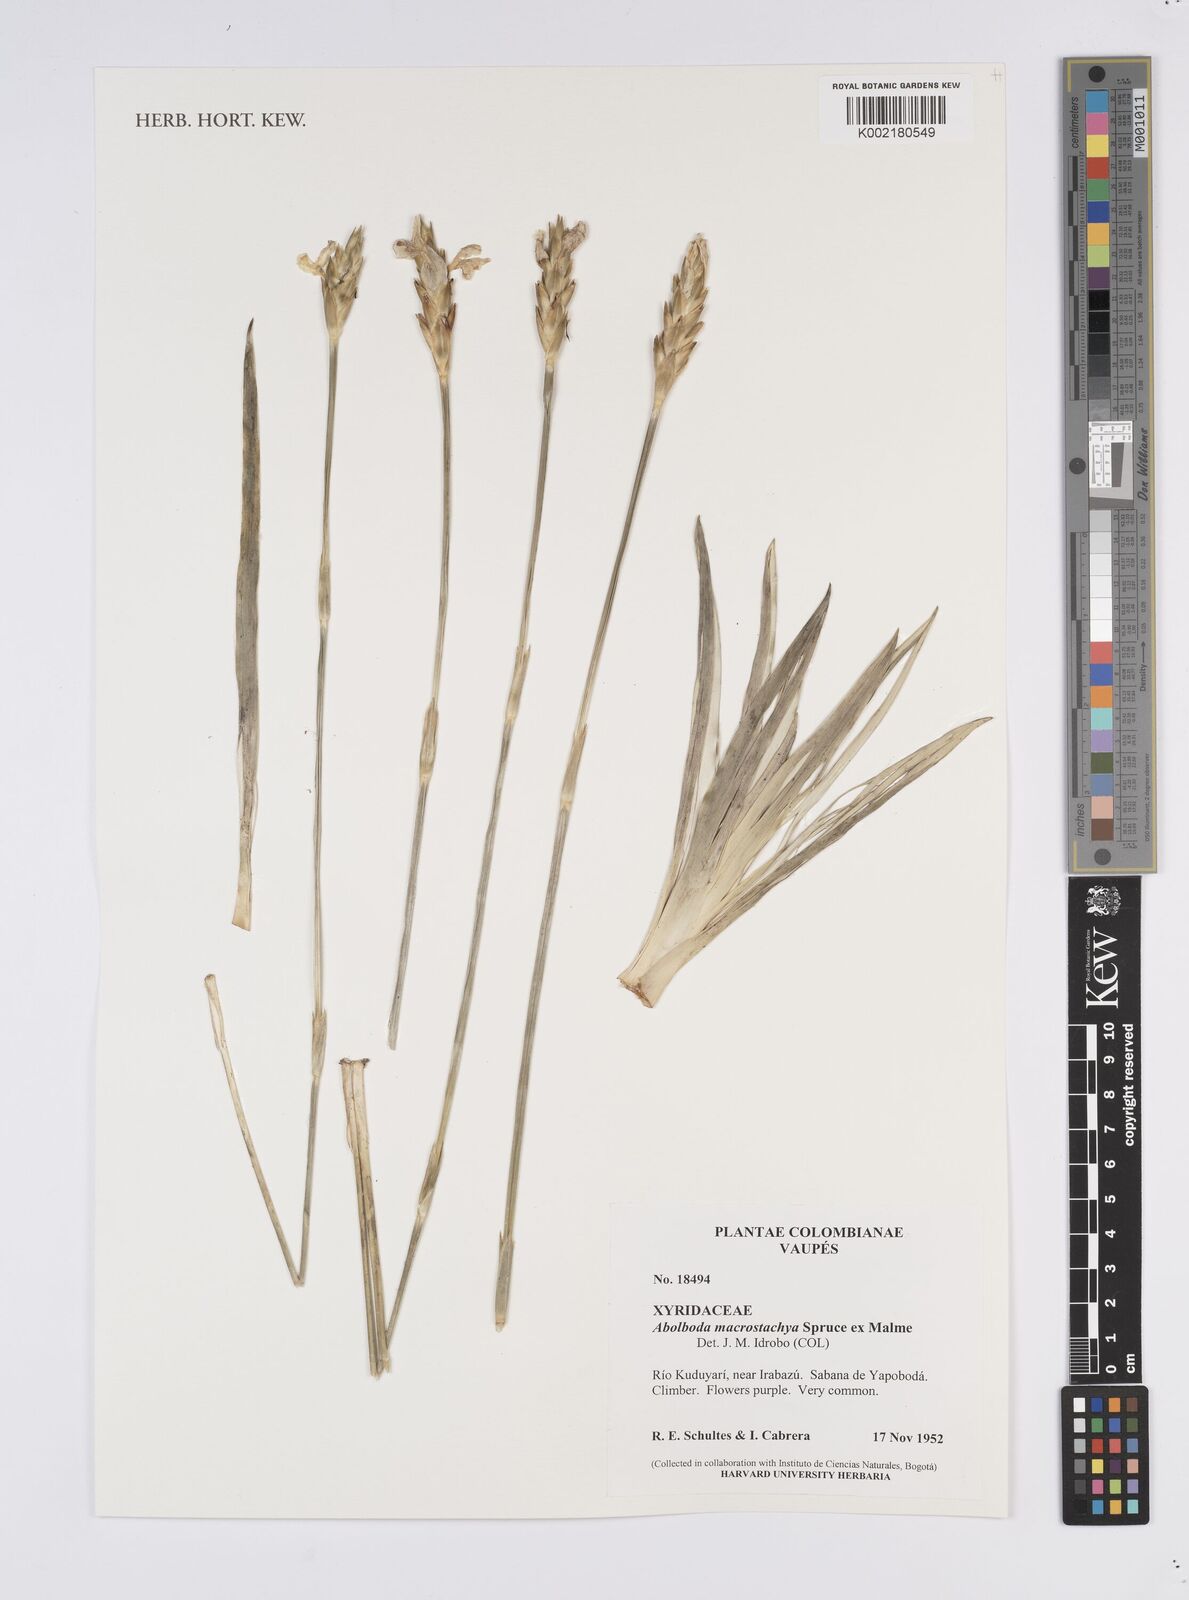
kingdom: Plantae
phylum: Tracheophyta
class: Liliopsida
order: Poales
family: Xyridaceae
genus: Abolboda
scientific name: Abolboda macrostachya
